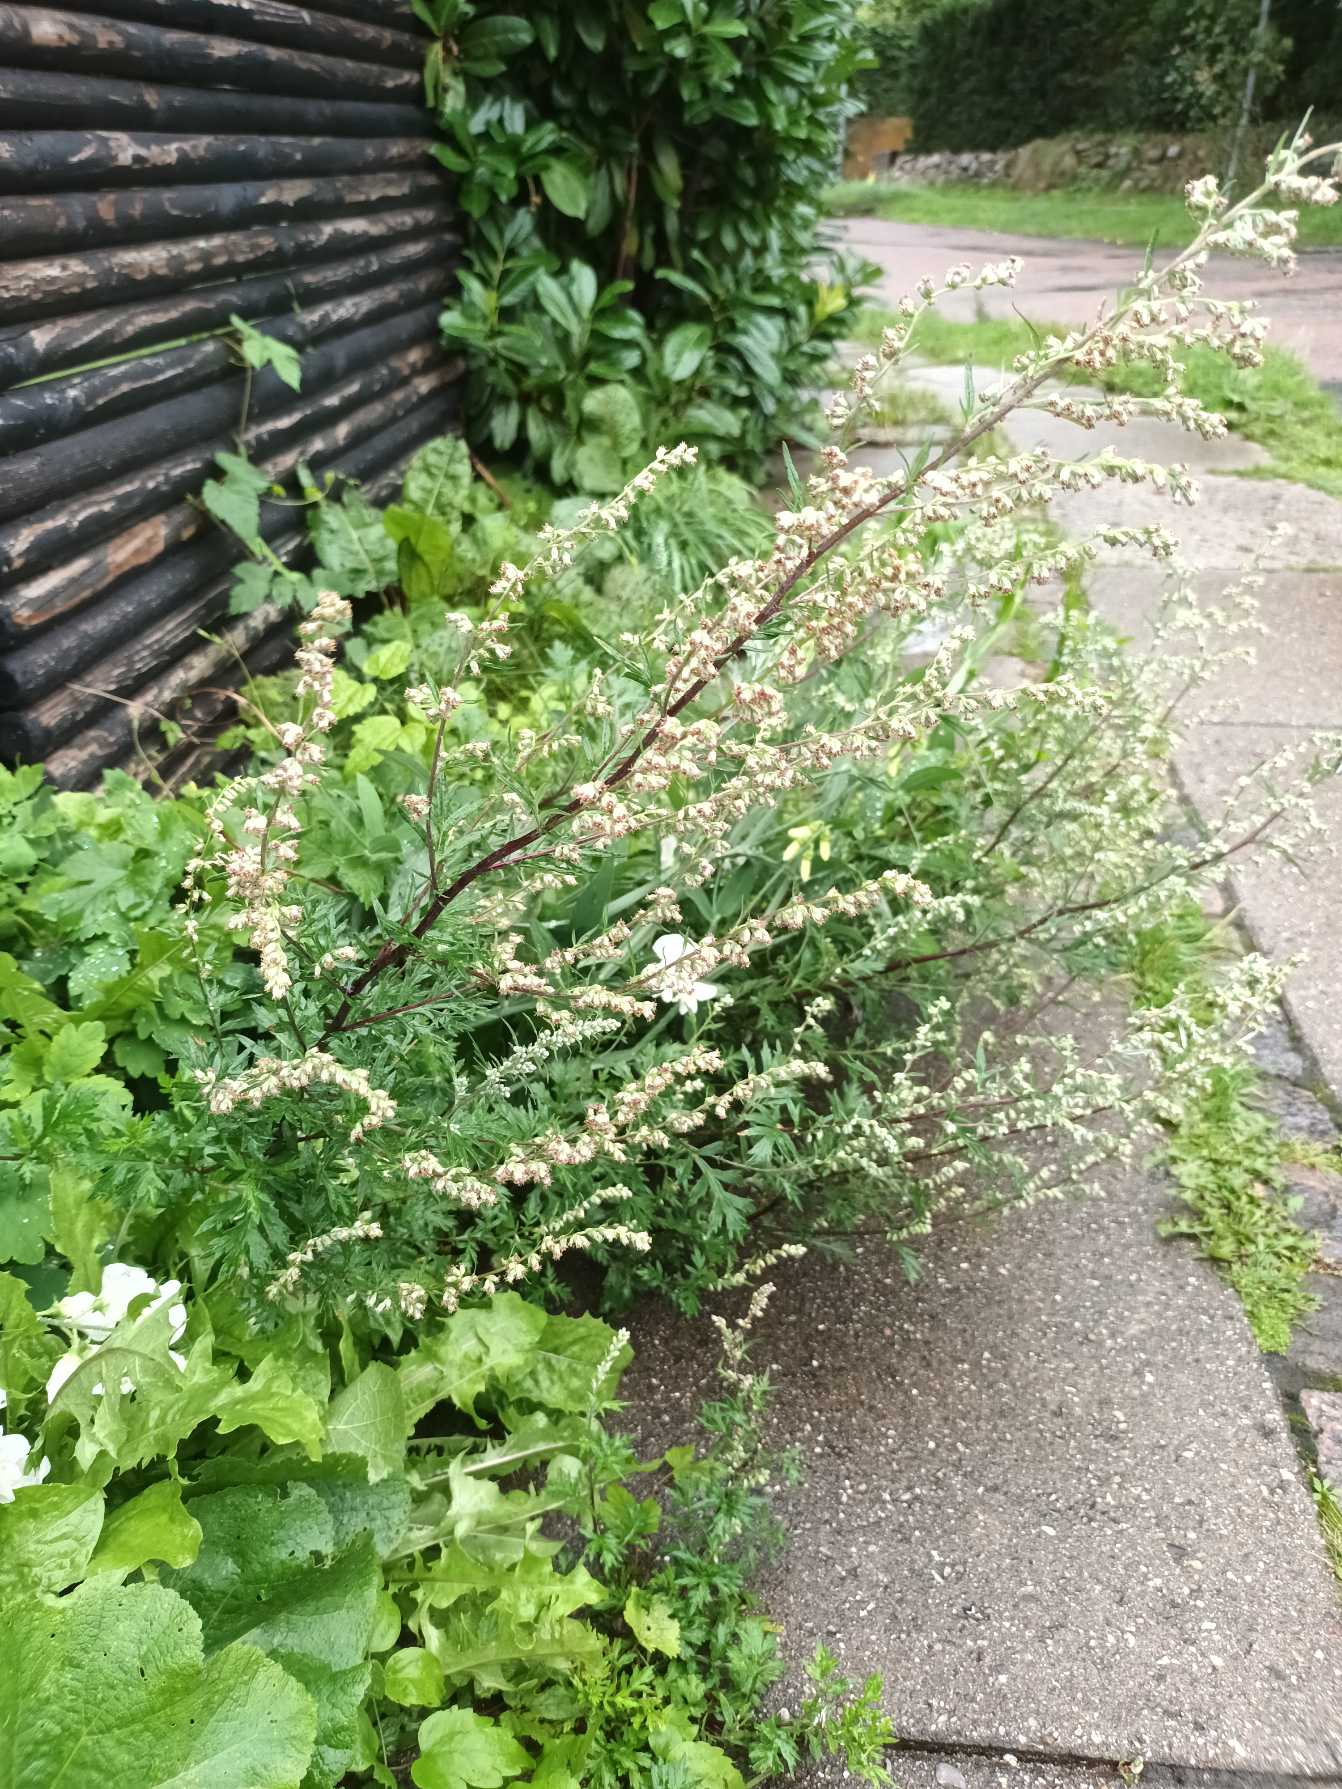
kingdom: Plantae
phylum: Tracheophyta
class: Magnoliopsida
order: Asterales
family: Asteraceae
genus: Artemisia
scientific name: Artemisia vulgaris
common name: Grå-bynke
